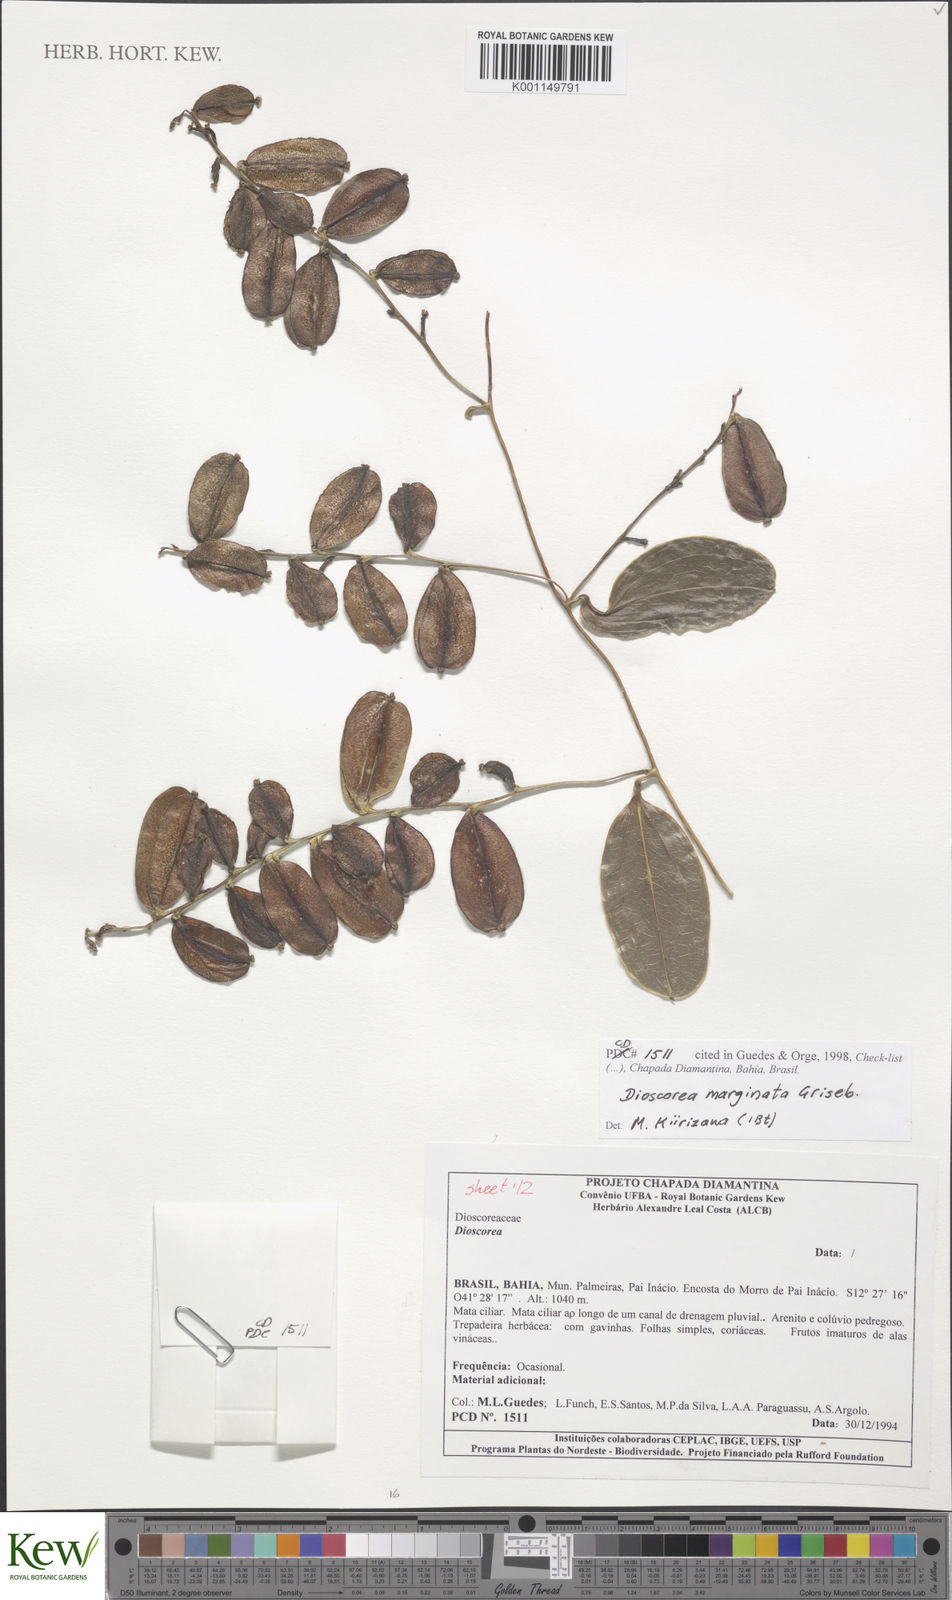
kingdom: Plantae
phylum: Tracheophyta
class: Liliopsida
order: Dioscoreales
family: Dioscoreaceae
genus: Dioscorea
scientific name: Dioscorea marginata
